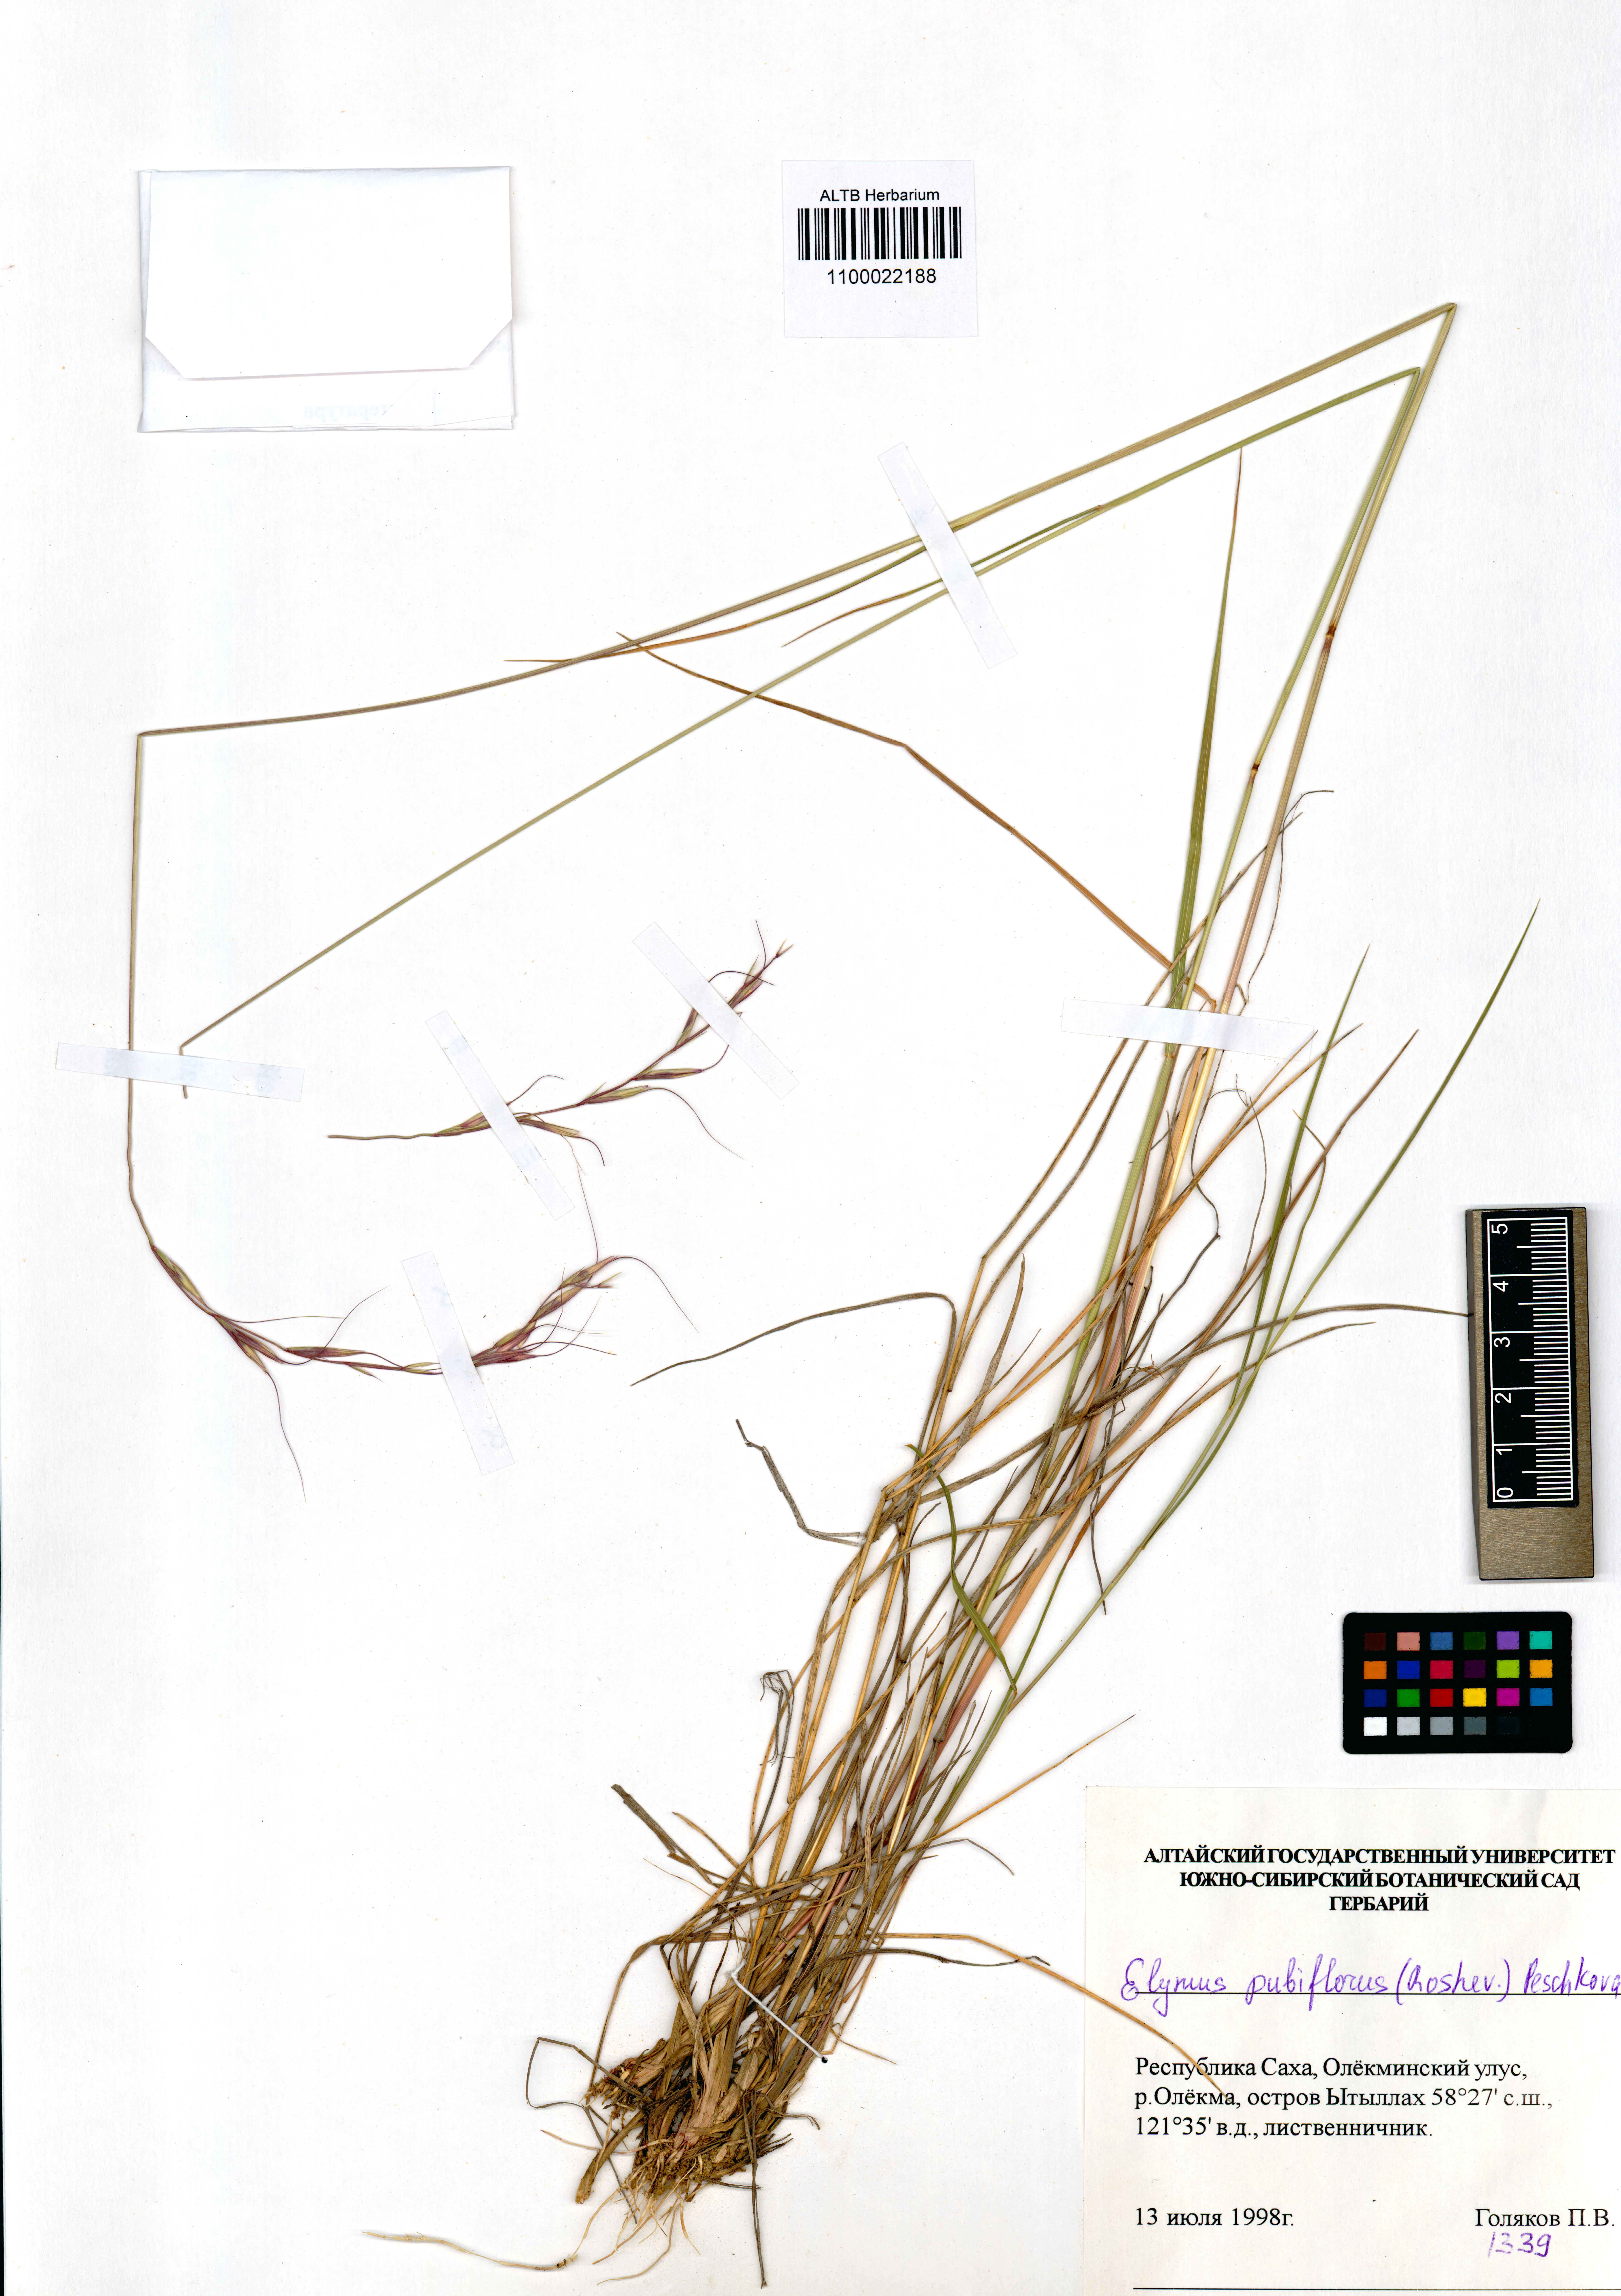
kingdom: Plantae
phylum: Tracheophyta
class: Liliopsida
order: Poales
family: Poaceae
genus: Elymus
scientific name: Elymus confusus
